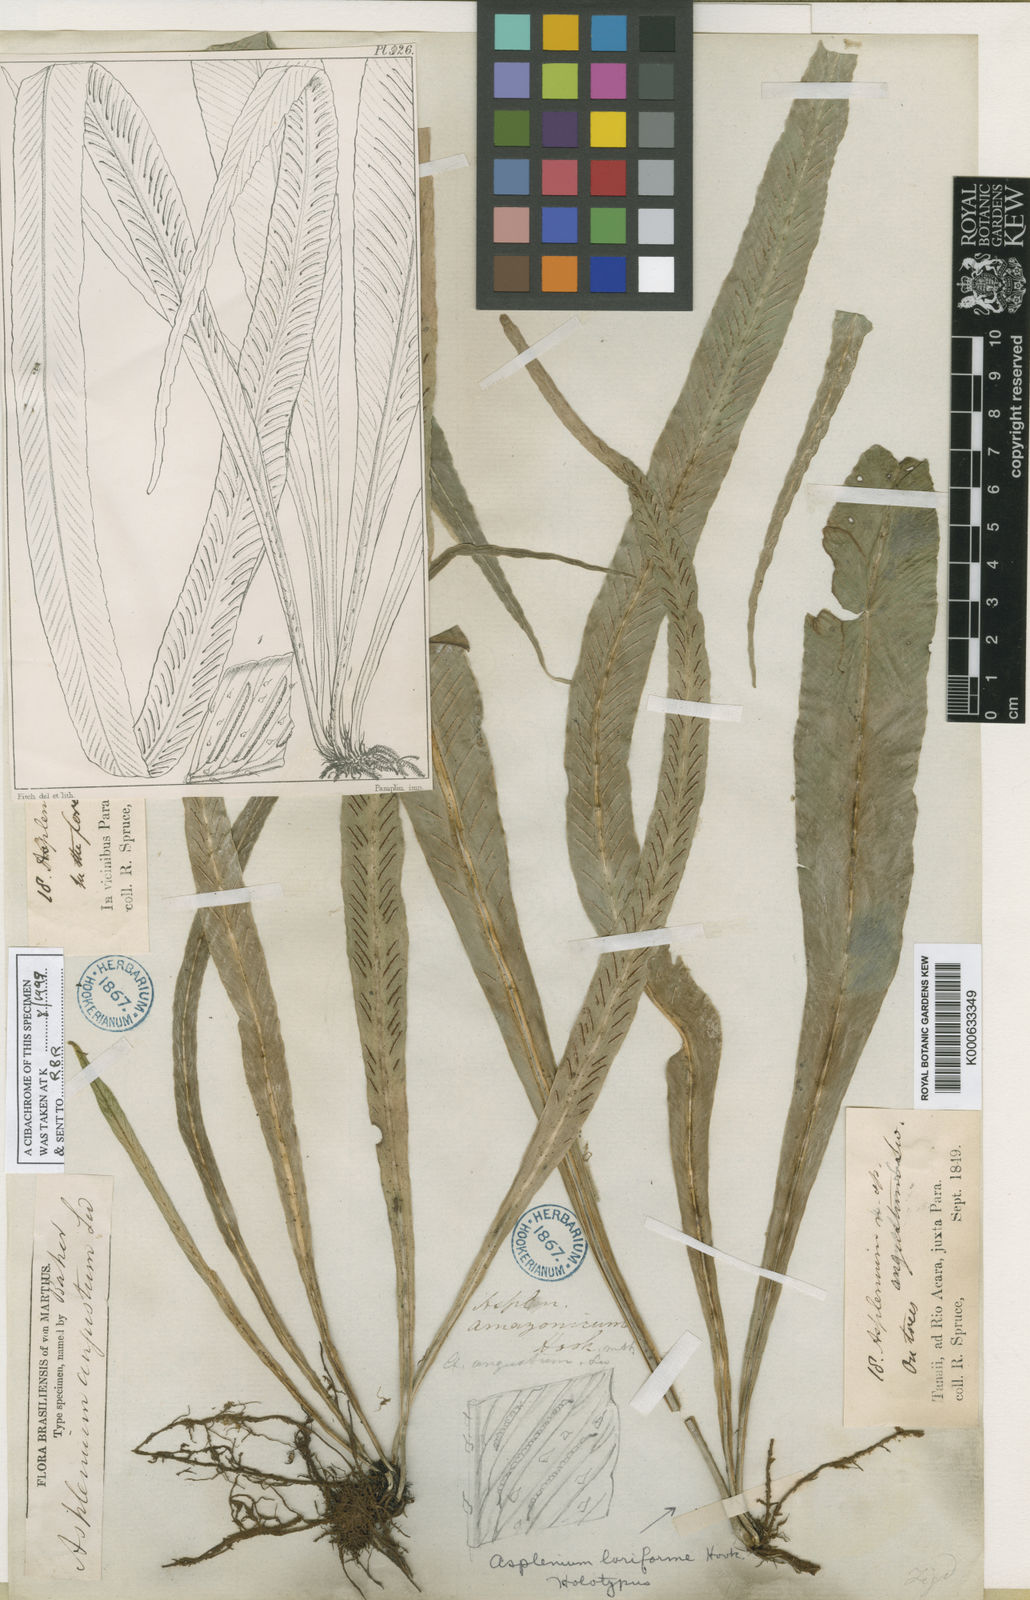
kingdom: Plantae
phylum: Tracheophyta
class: Polypodiopsida
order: Polypodiales
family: Aspleniaceae
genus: Asplenium
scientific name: Asplenium
